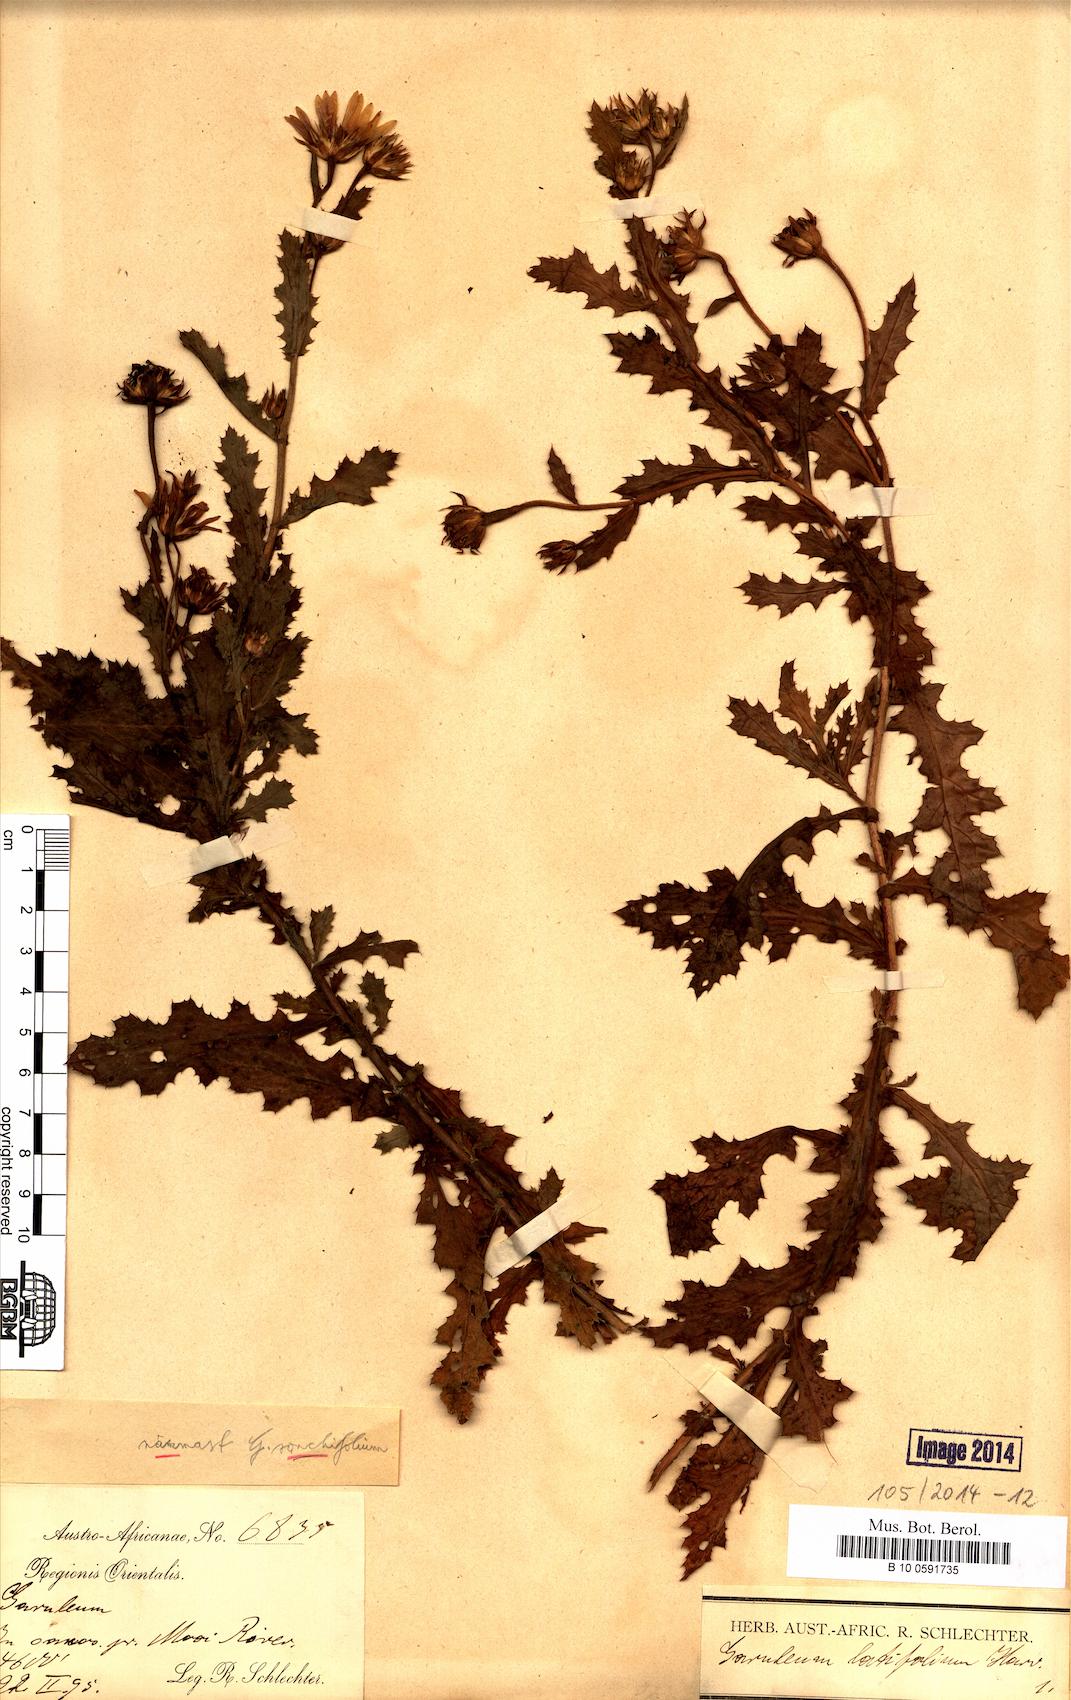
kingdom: Plantae
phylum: Tracheophyta
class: Magnoliopsida
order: Asterales
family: Asteraceae
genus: Garuleum
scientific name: Garuleum sonchifolium
